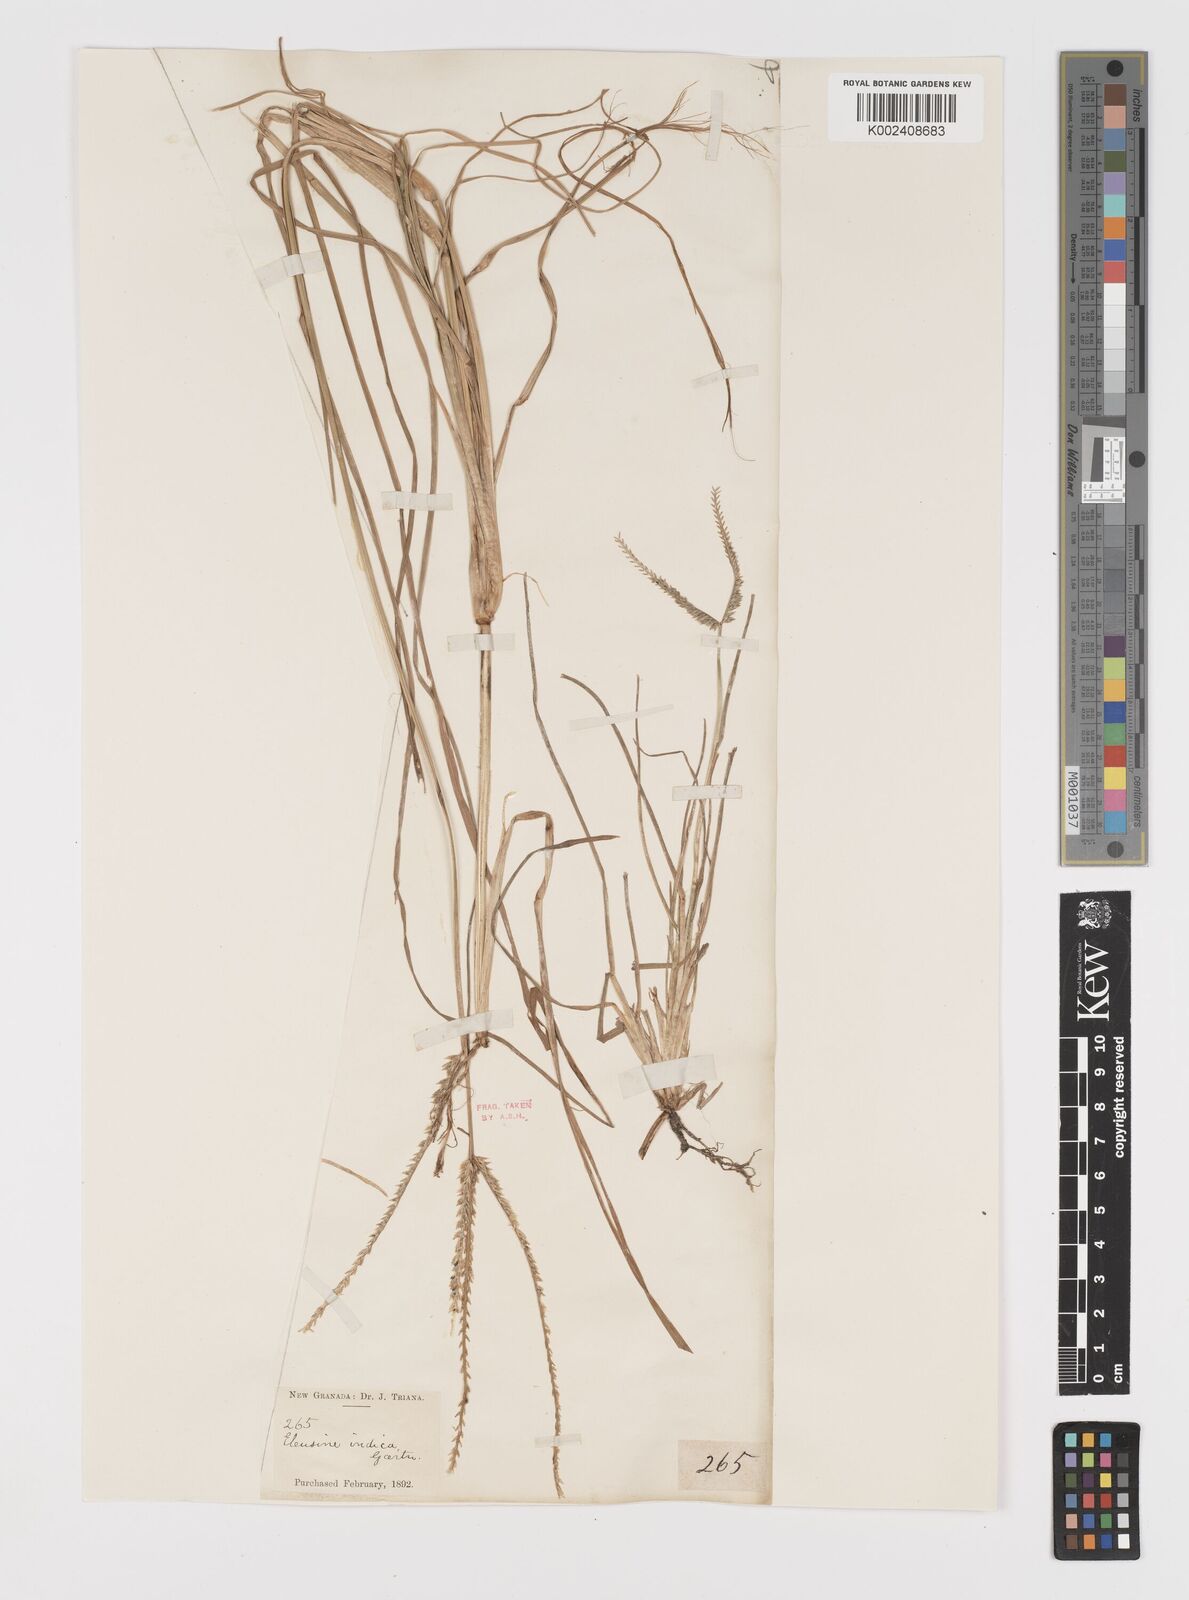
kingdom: Plantae
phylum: Tracheophyta
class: Liliopsida
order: Poales
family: Poaceae
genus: Eleusine
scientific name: Eleusine indica
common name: Yard-grass
